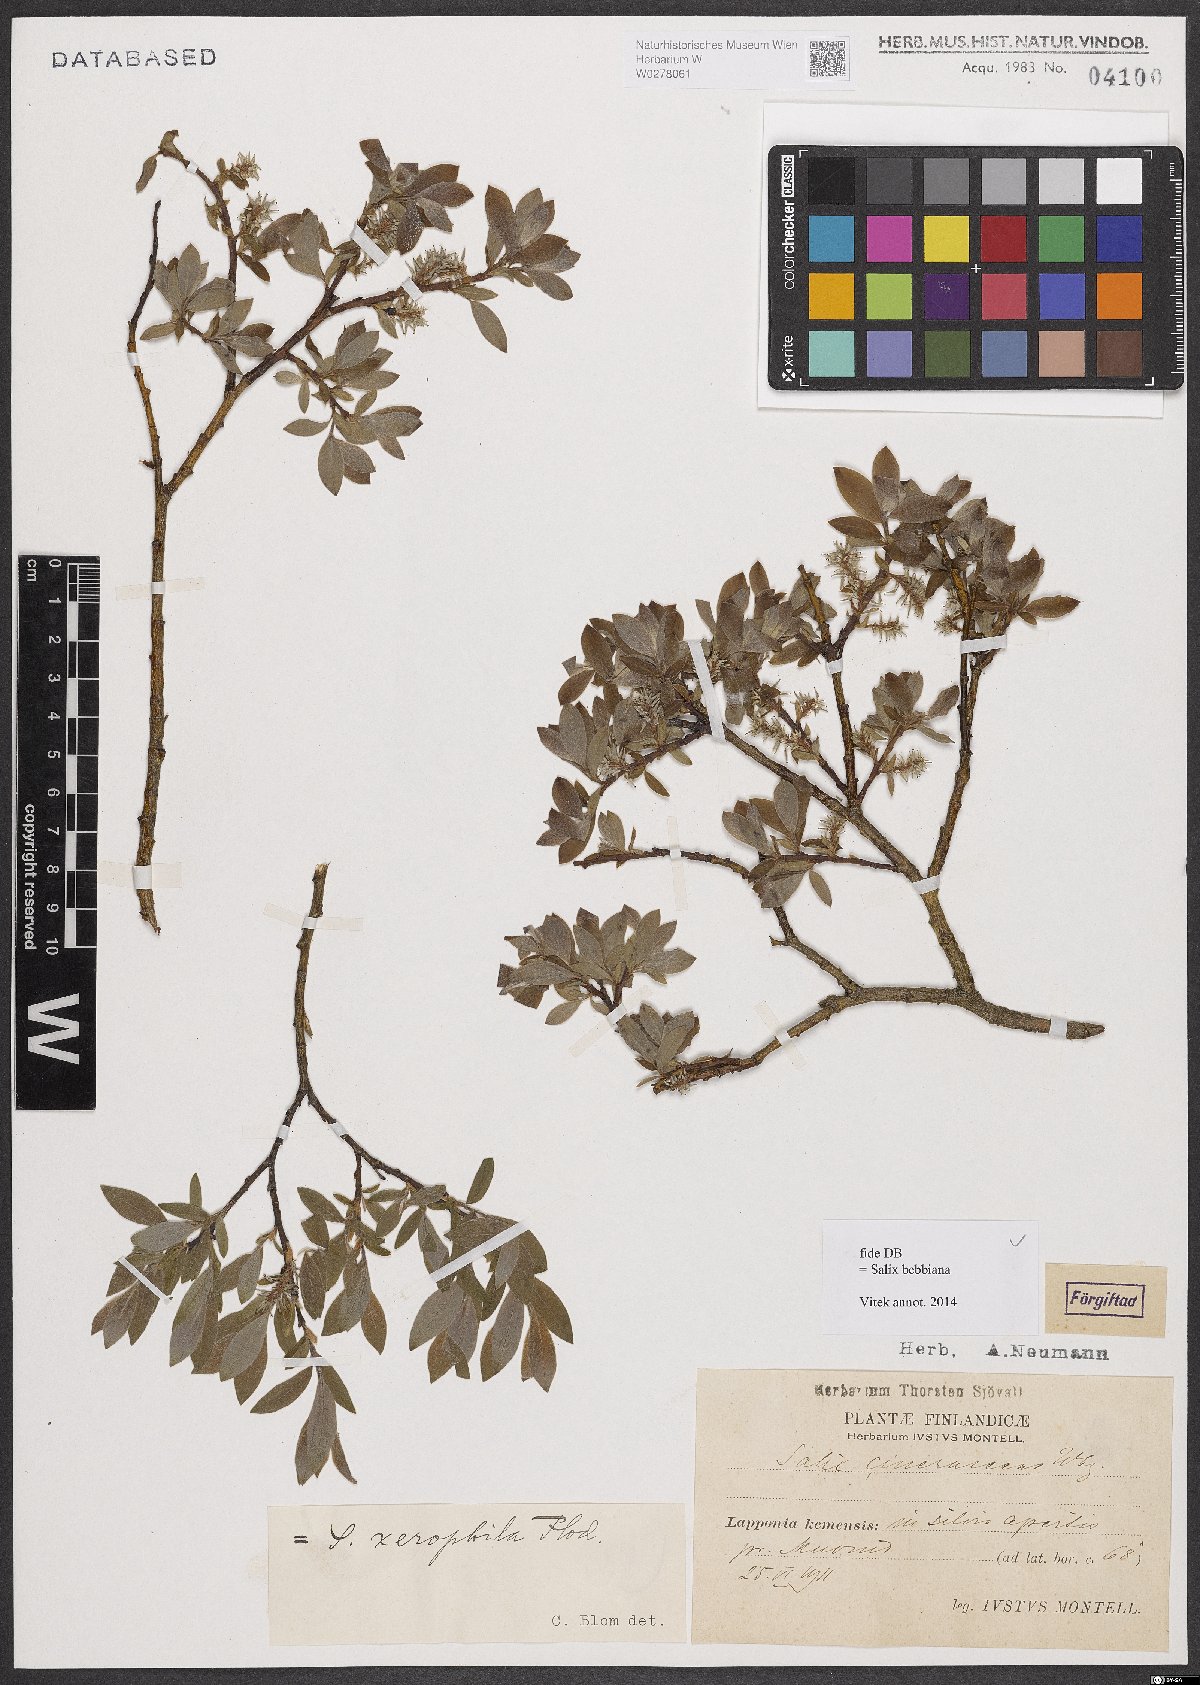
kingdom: Plantae
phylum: Tracheophyta
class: Magnoliopsida
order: Malpighiales
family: Salicaceae
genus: Salix
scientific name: Salix bebbiana
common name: Bebb's willow
